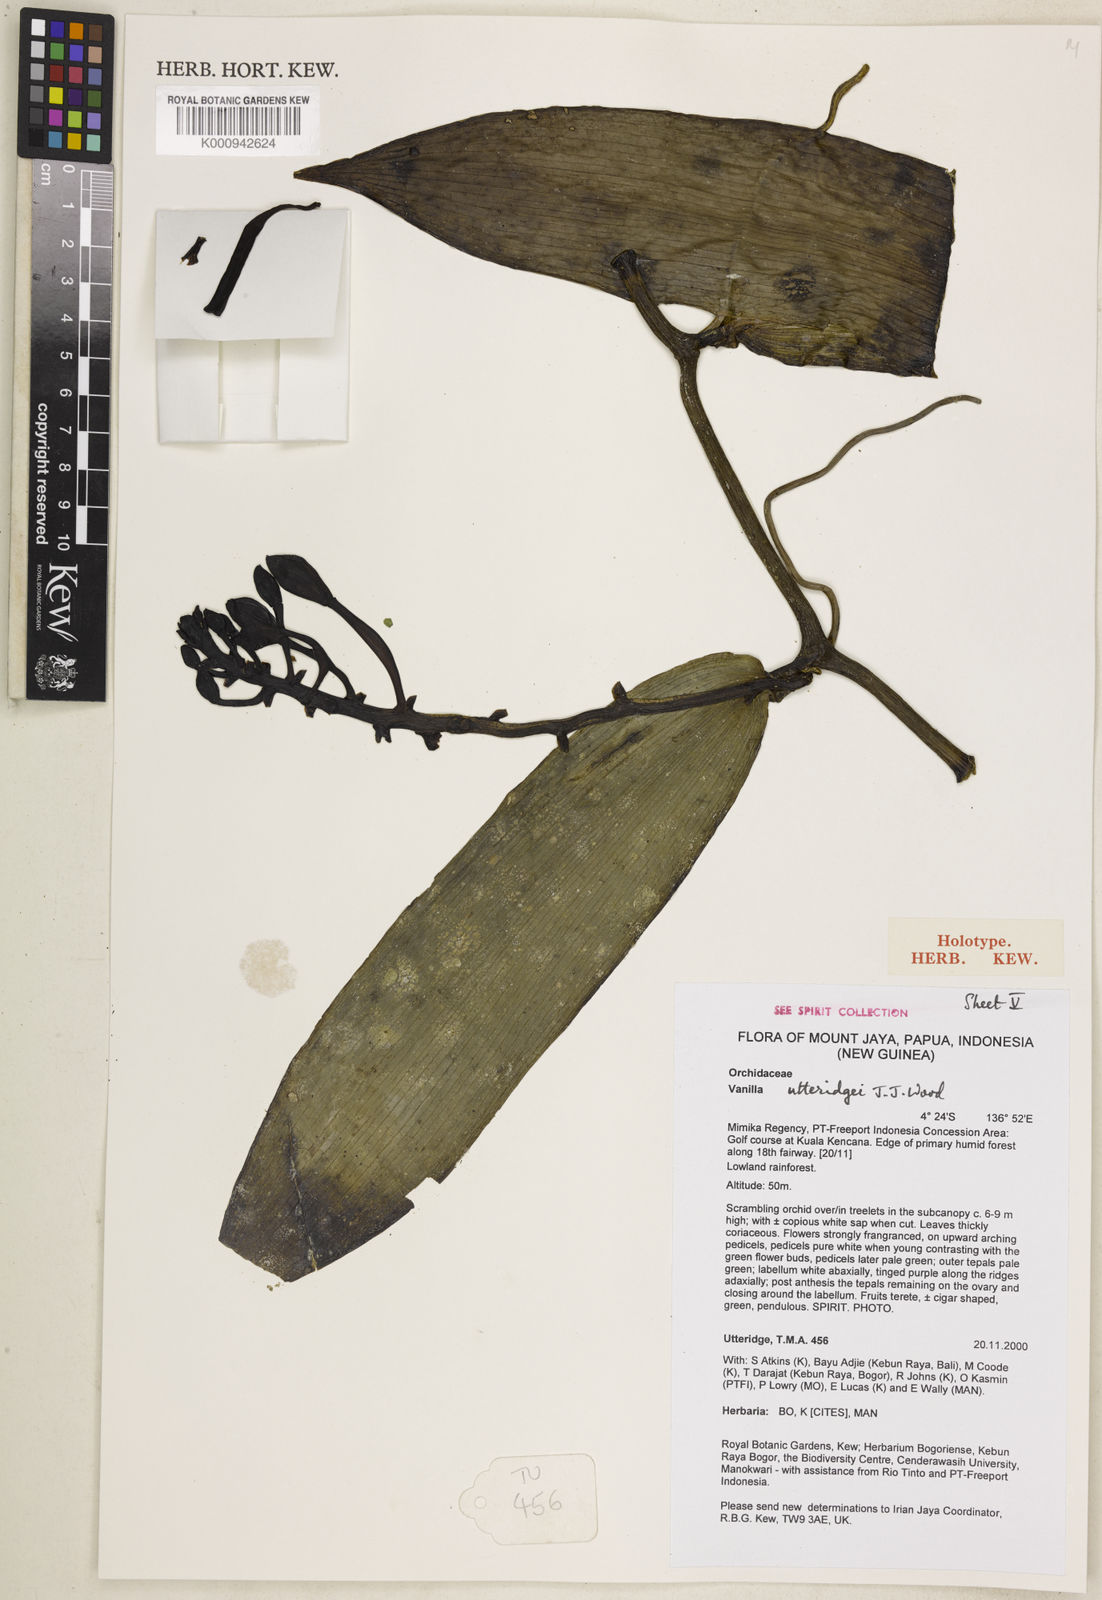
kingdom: Plantae
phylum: Tracheophyta
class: Liliopsida
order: Asparagales
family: Orchidaceae
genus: Vanilla
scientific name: Vanilla utteridgei
